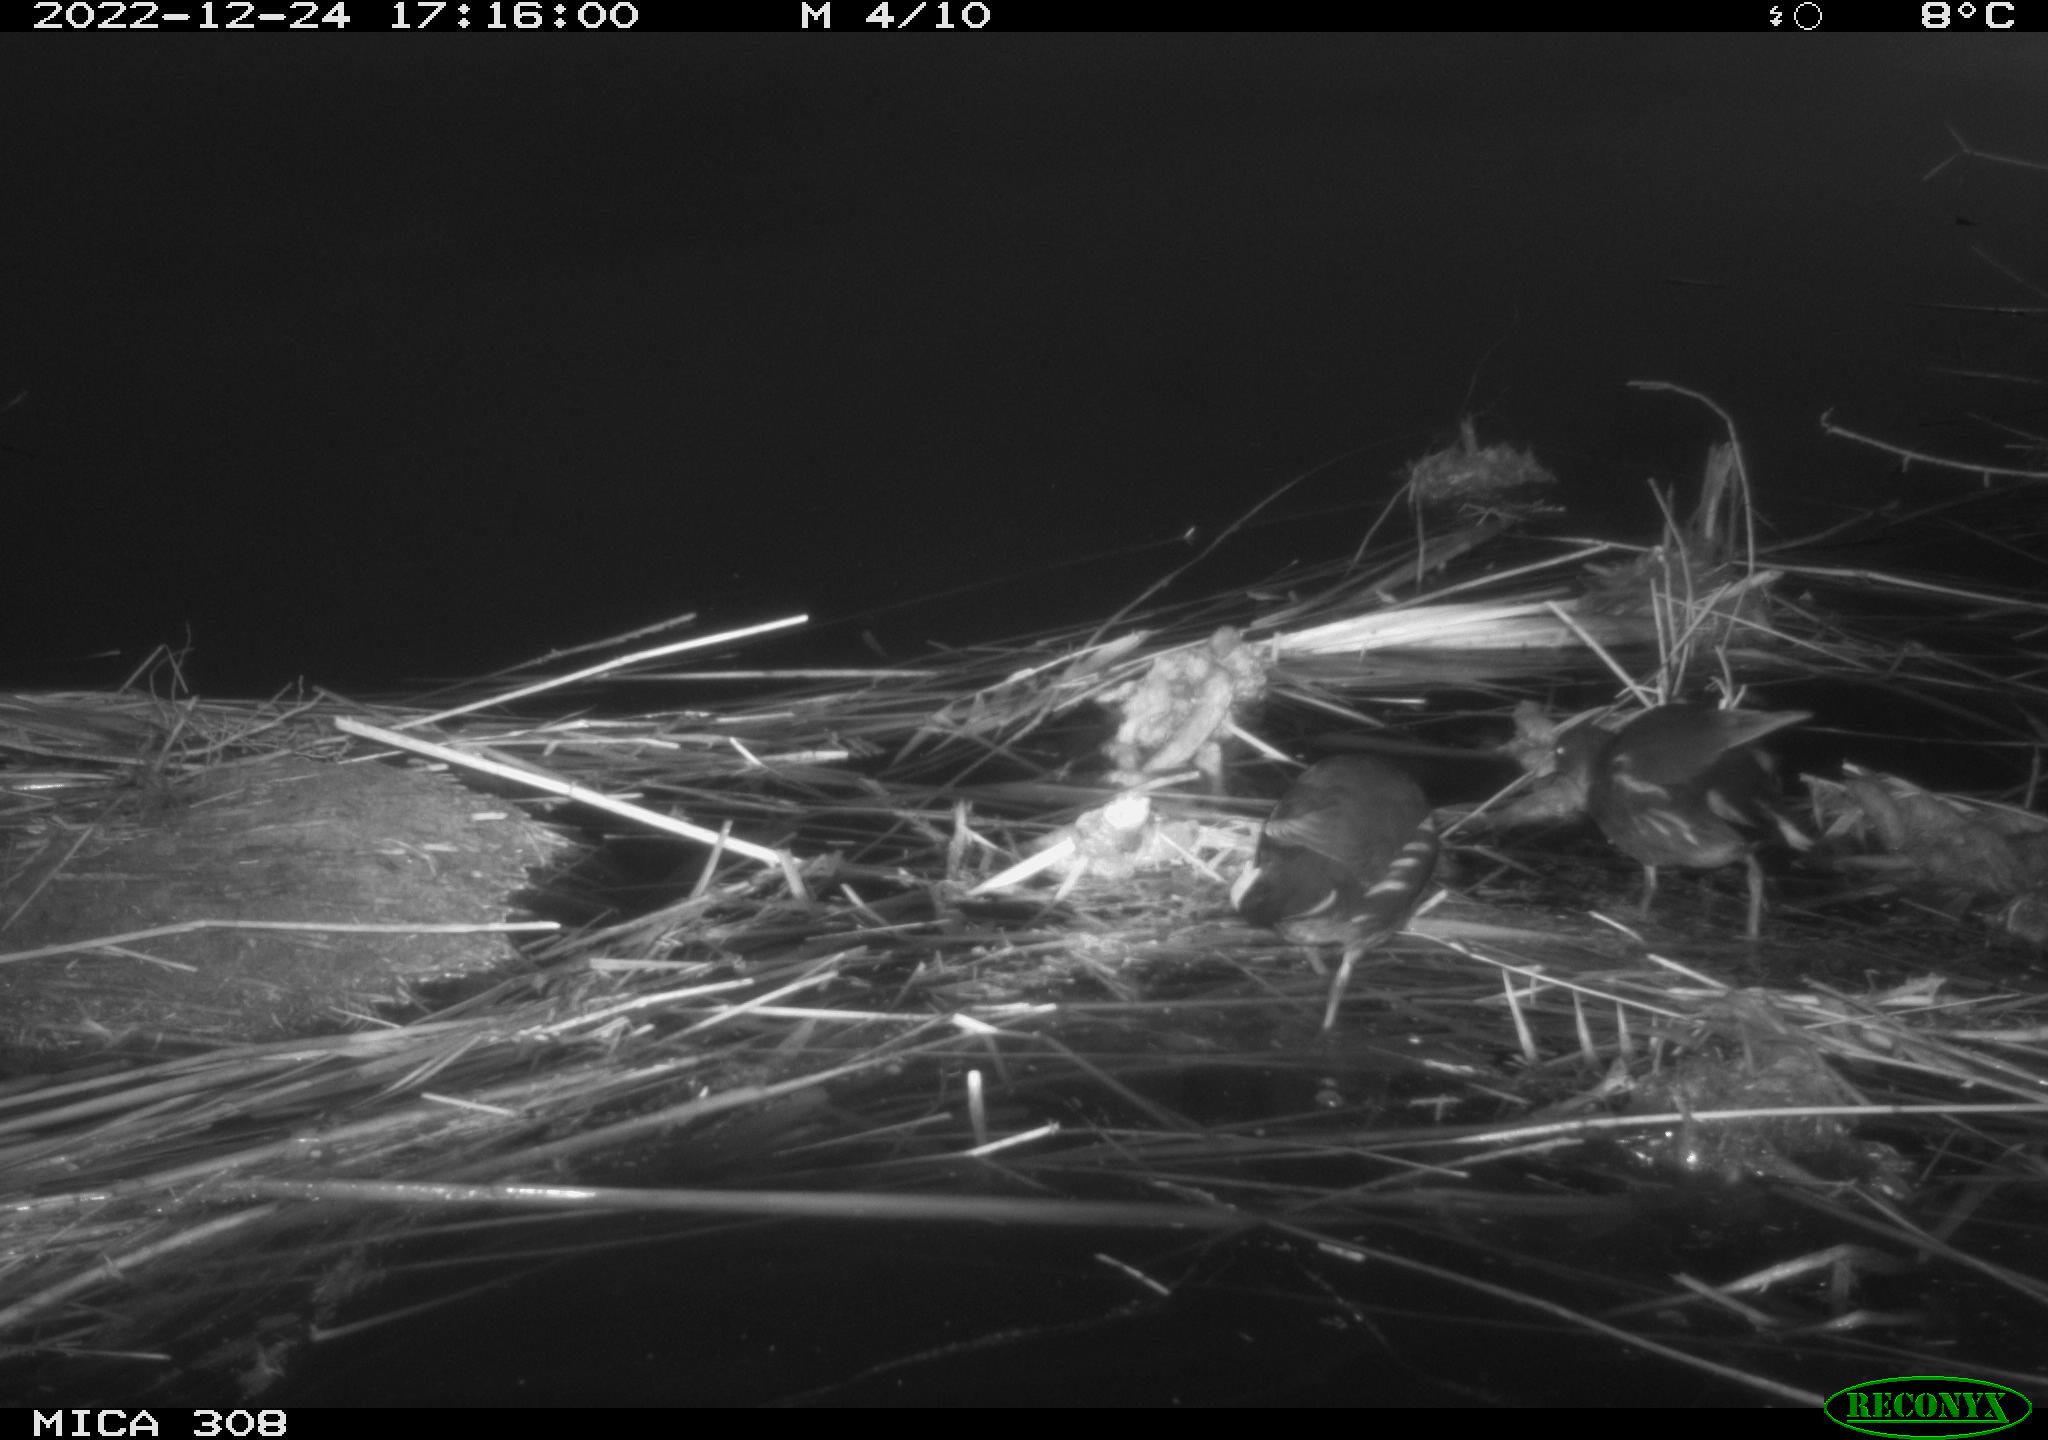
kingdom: Animalia
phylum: Chordata
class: Mammalia
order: Rodentia
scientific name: Rodentia
